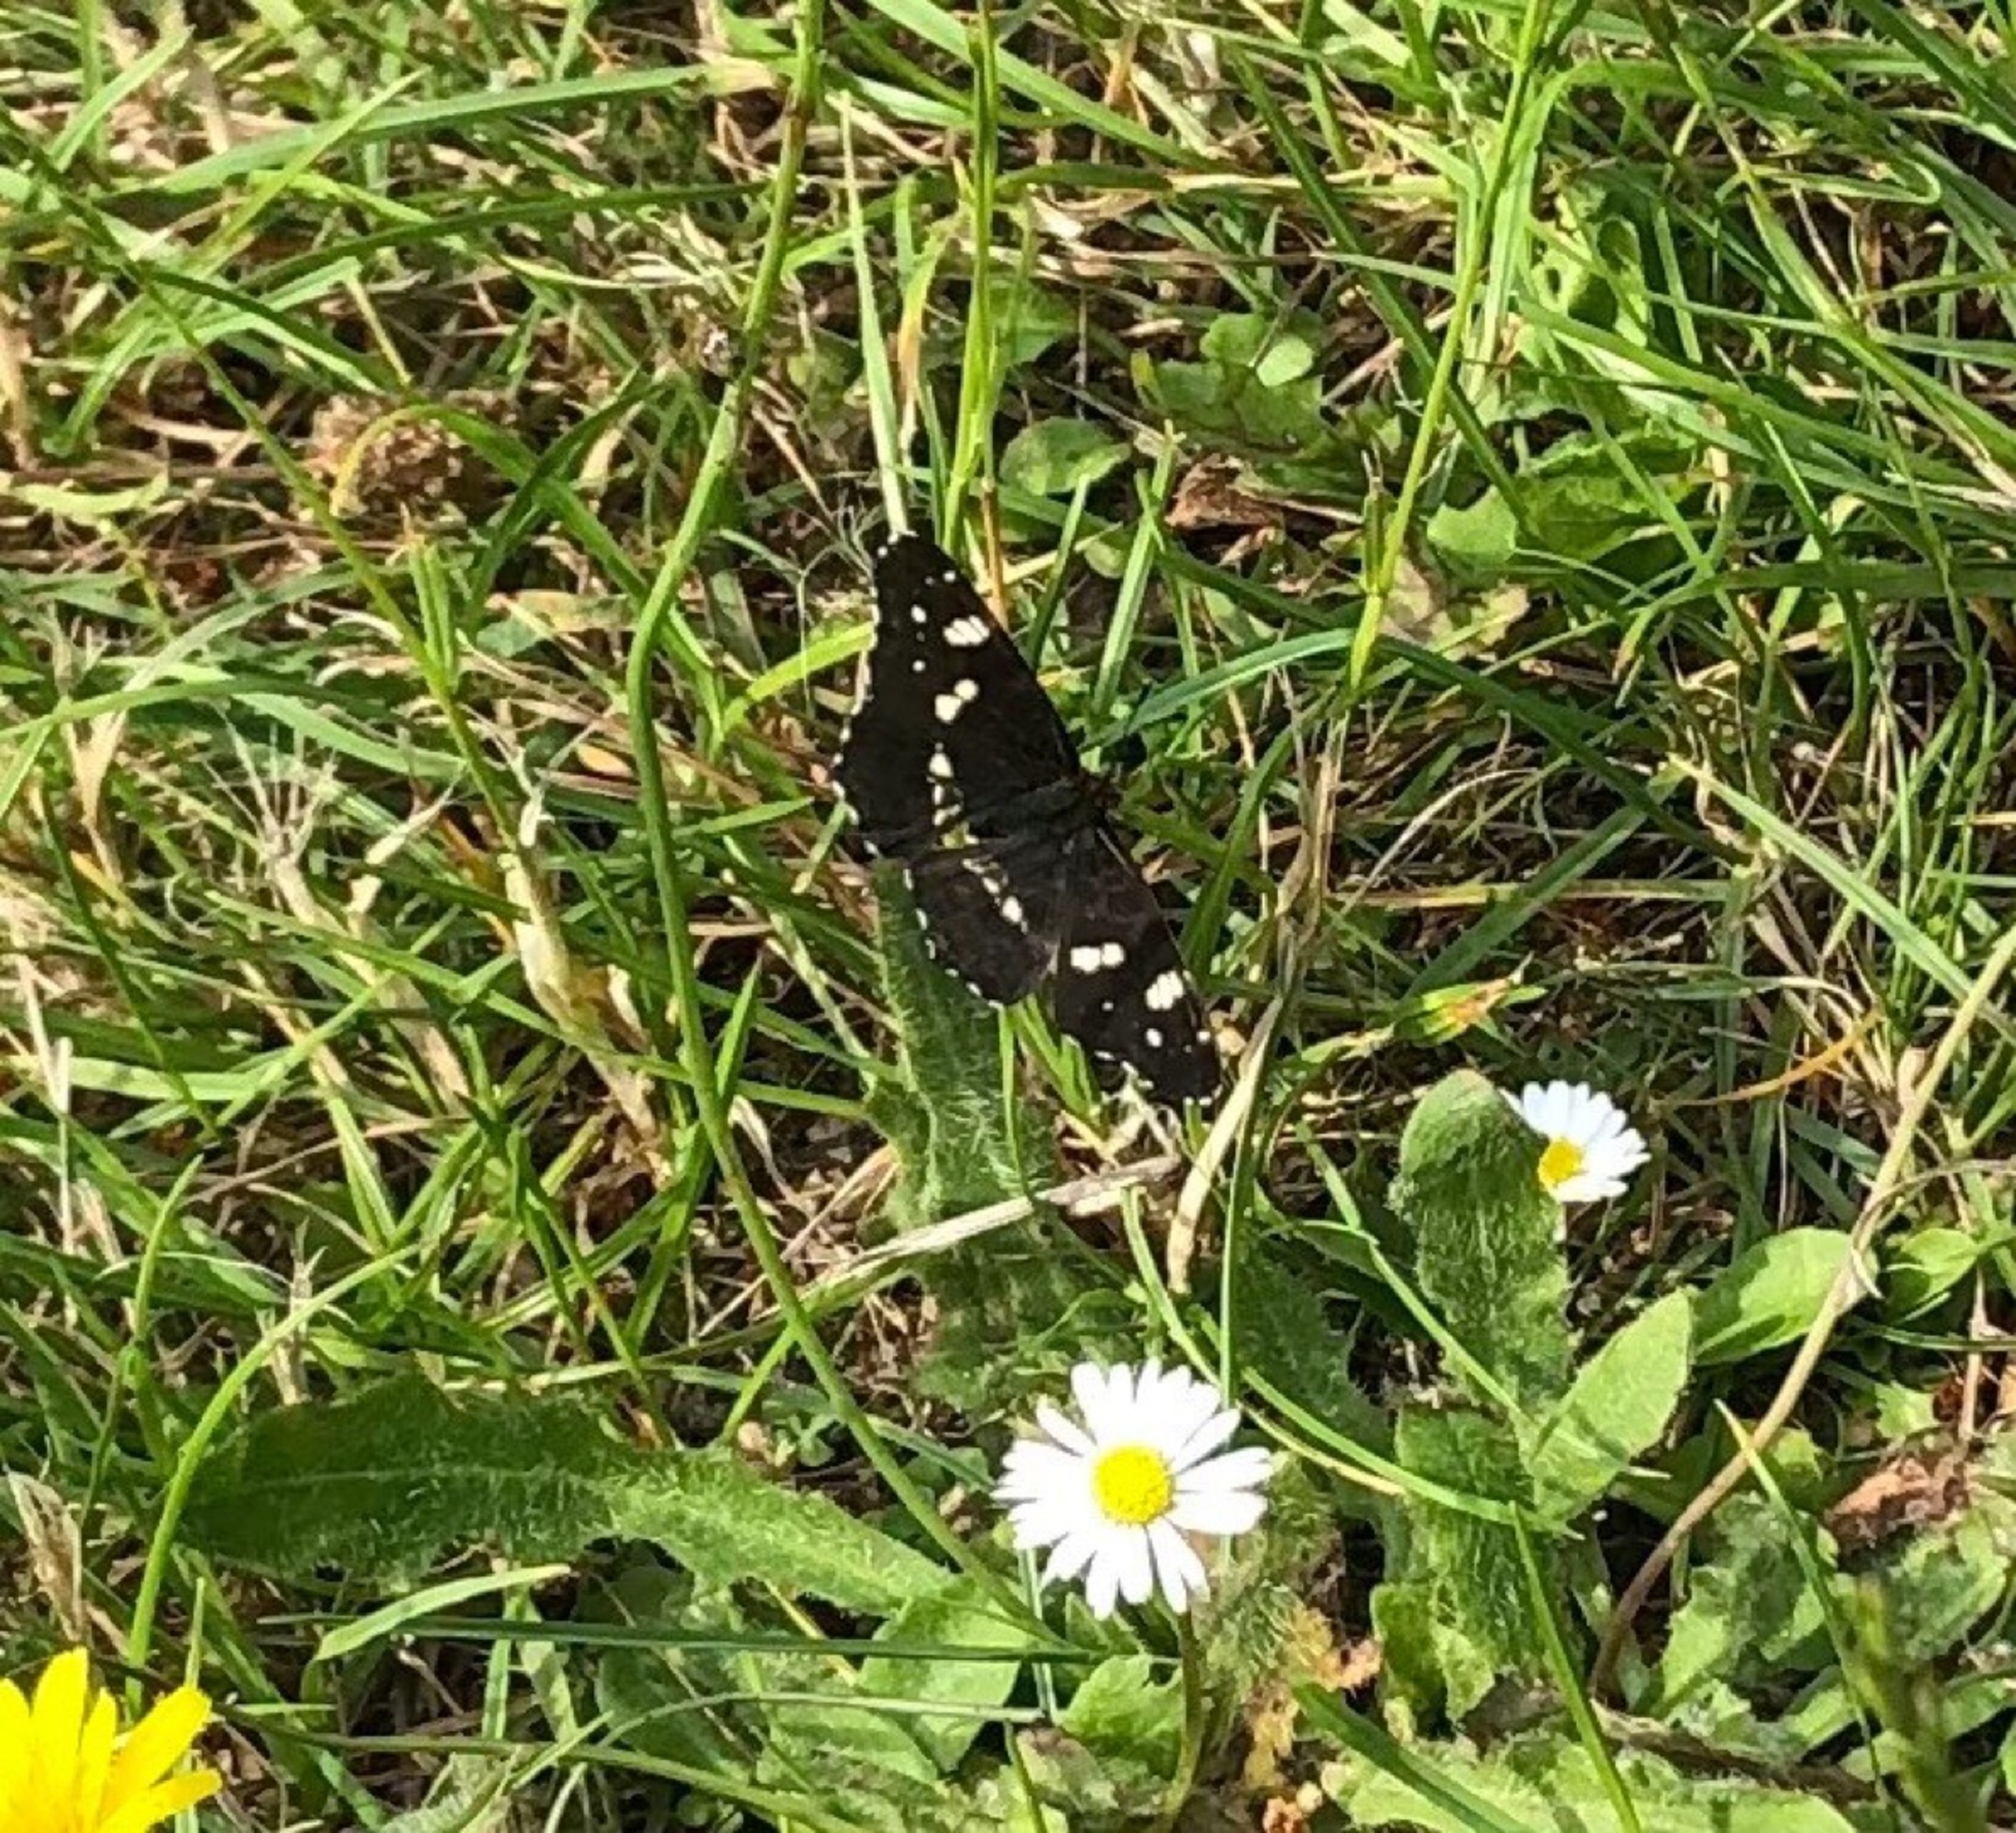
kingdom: Animalia
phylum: Arthropoda
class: Insecta
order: Lepidoptera
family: Nymphalidae
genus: Araschnia
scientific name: Araschnia levana
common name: Nældesommerfugl
